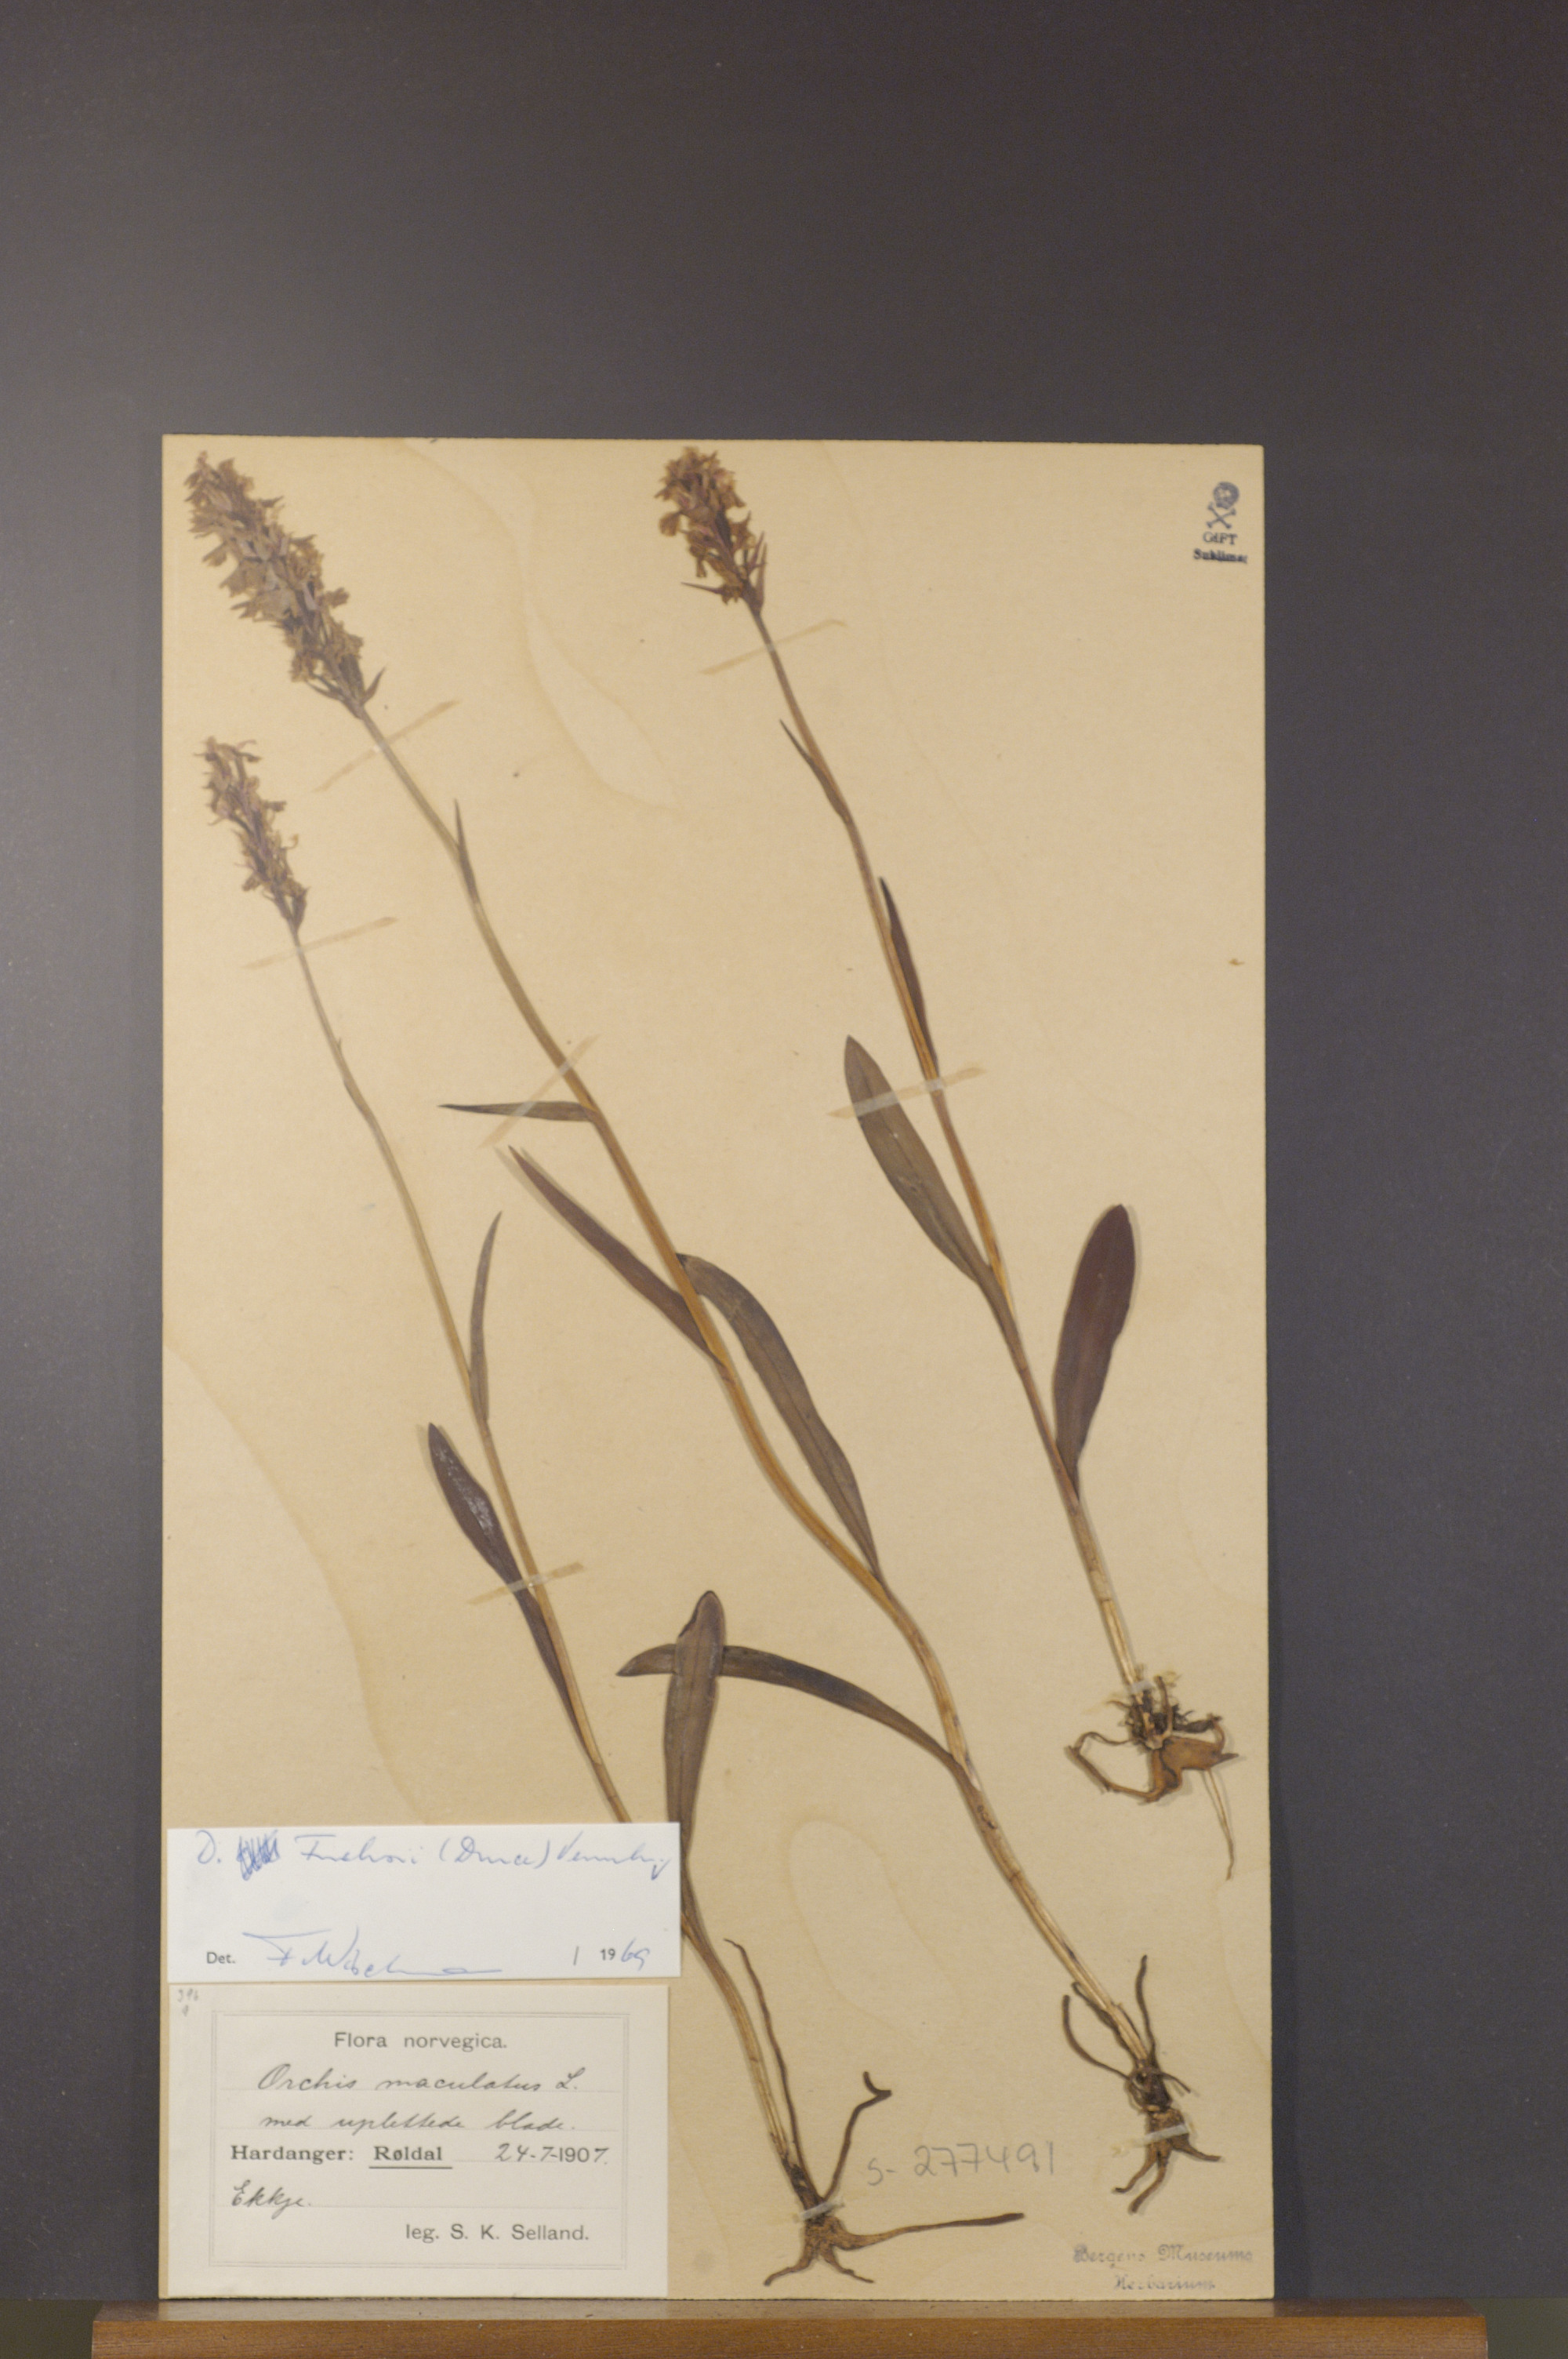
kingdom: Plantae
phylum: Tracheophyta
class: Liliopsida
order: Asparagales
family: Orchidaceae
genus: Dactylorhiza
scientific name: Dactylorhiza maculata
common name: Heath spotted-orchid
